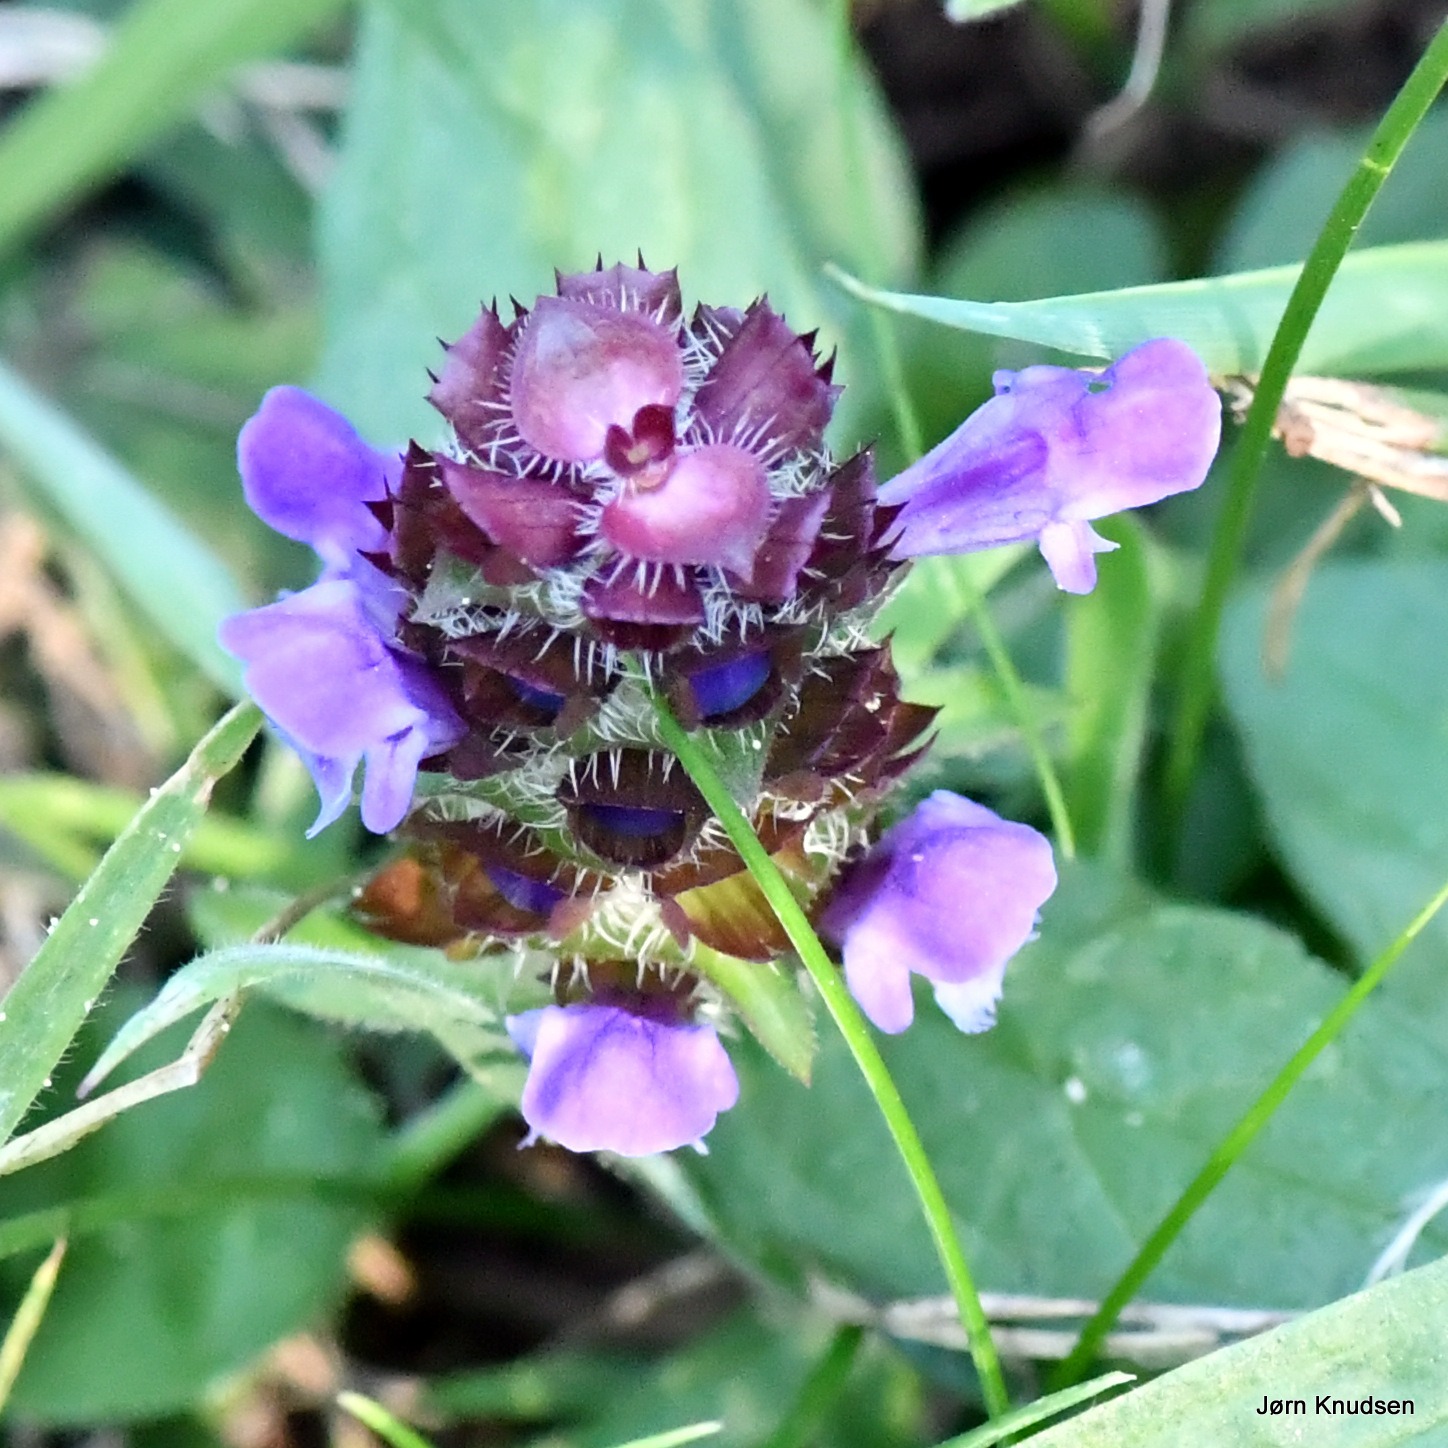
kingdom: Plantae
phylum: Tracheophyta
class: Magnoliopsida
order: Lamiales
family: Lamiaceae
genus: Prunella
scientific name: Prunella vulgaris
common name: Almindelig brunelle
